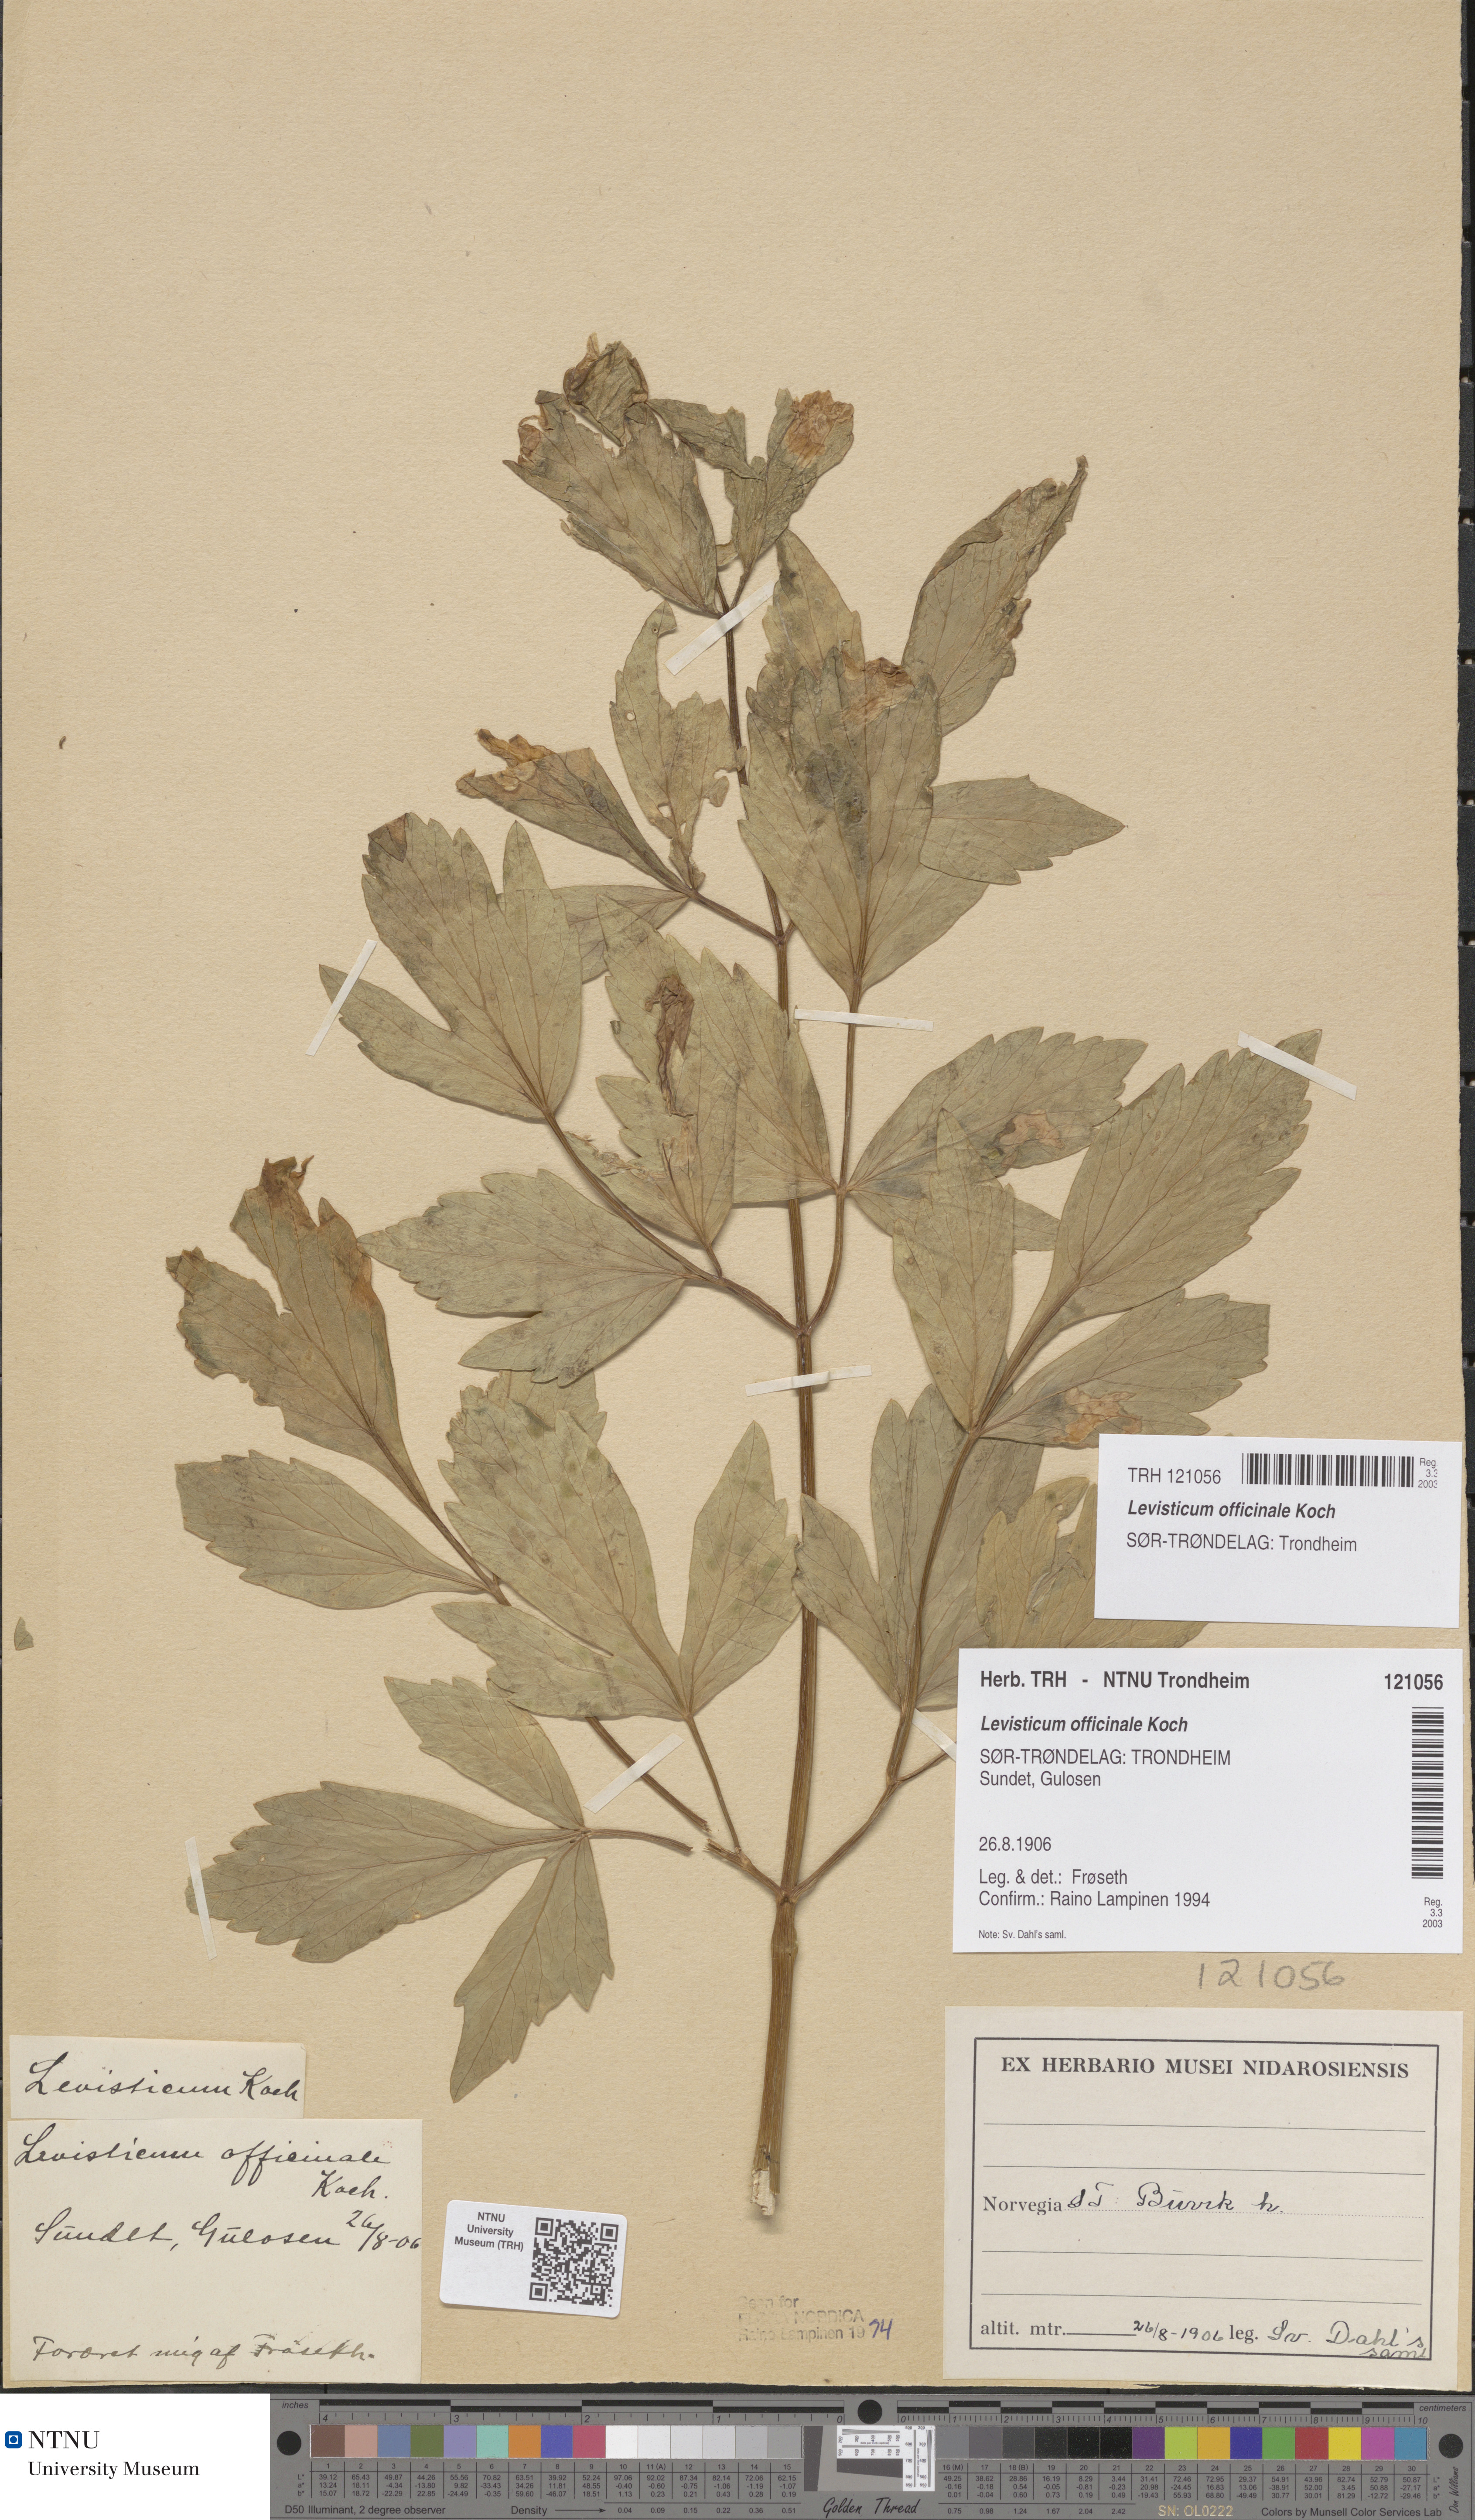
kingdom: Plantae
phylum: Tracheophyta
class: Magnoliopsida
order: Apiales
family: Apiaceae
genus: Levisticum
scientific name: Levisticum officinale
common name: Lovage
